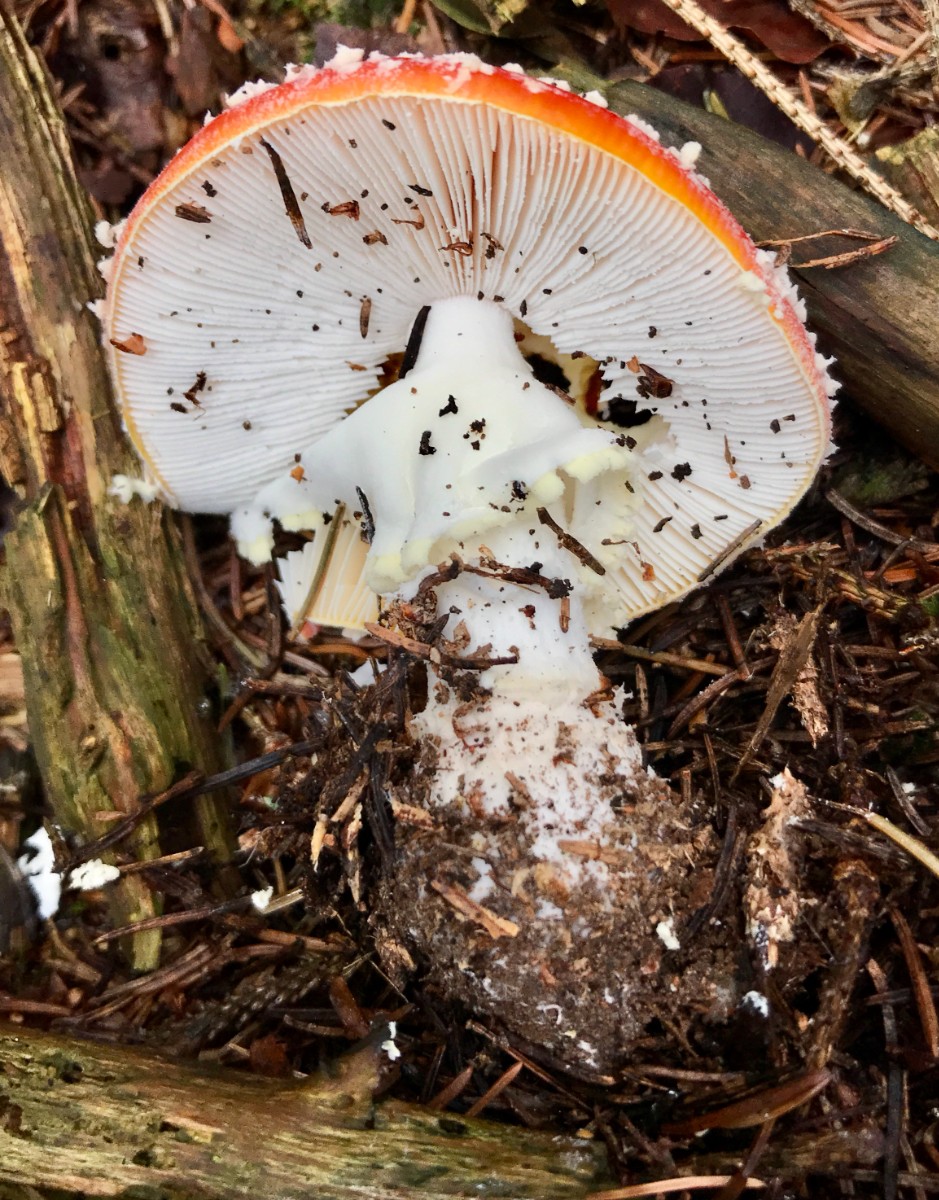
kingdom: Fungi
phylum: Basidiomycota
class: Agaricomycetes
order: Agaricales
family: Amanitaceae
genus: Amanita
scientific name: Amanita muscaria
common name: rød fluesvamp
